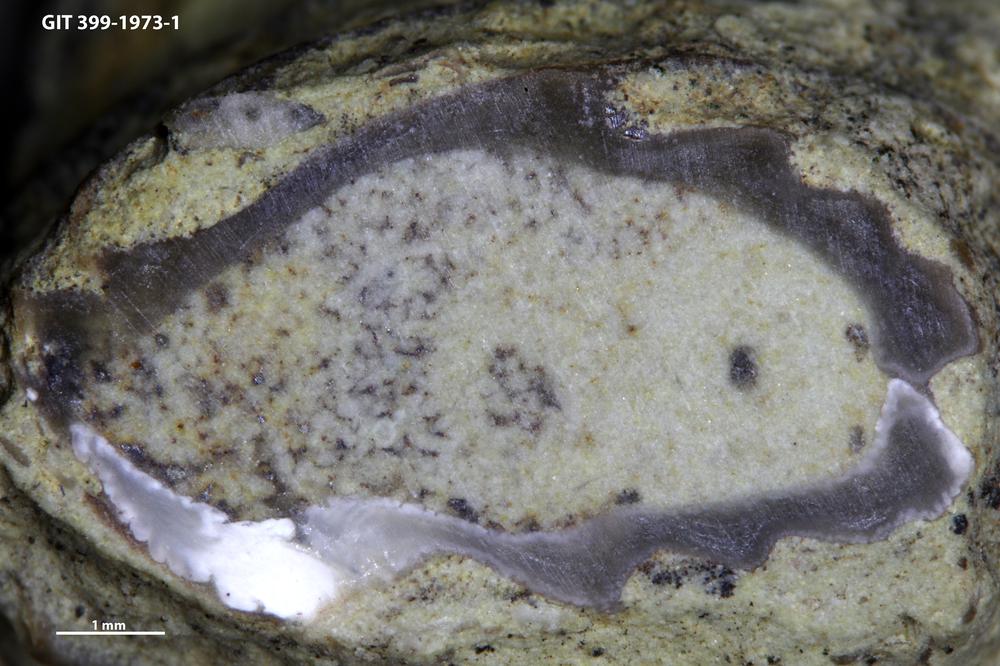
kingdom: Animalia
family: Coprulidae
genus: Coprulus
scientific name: Coprulus
